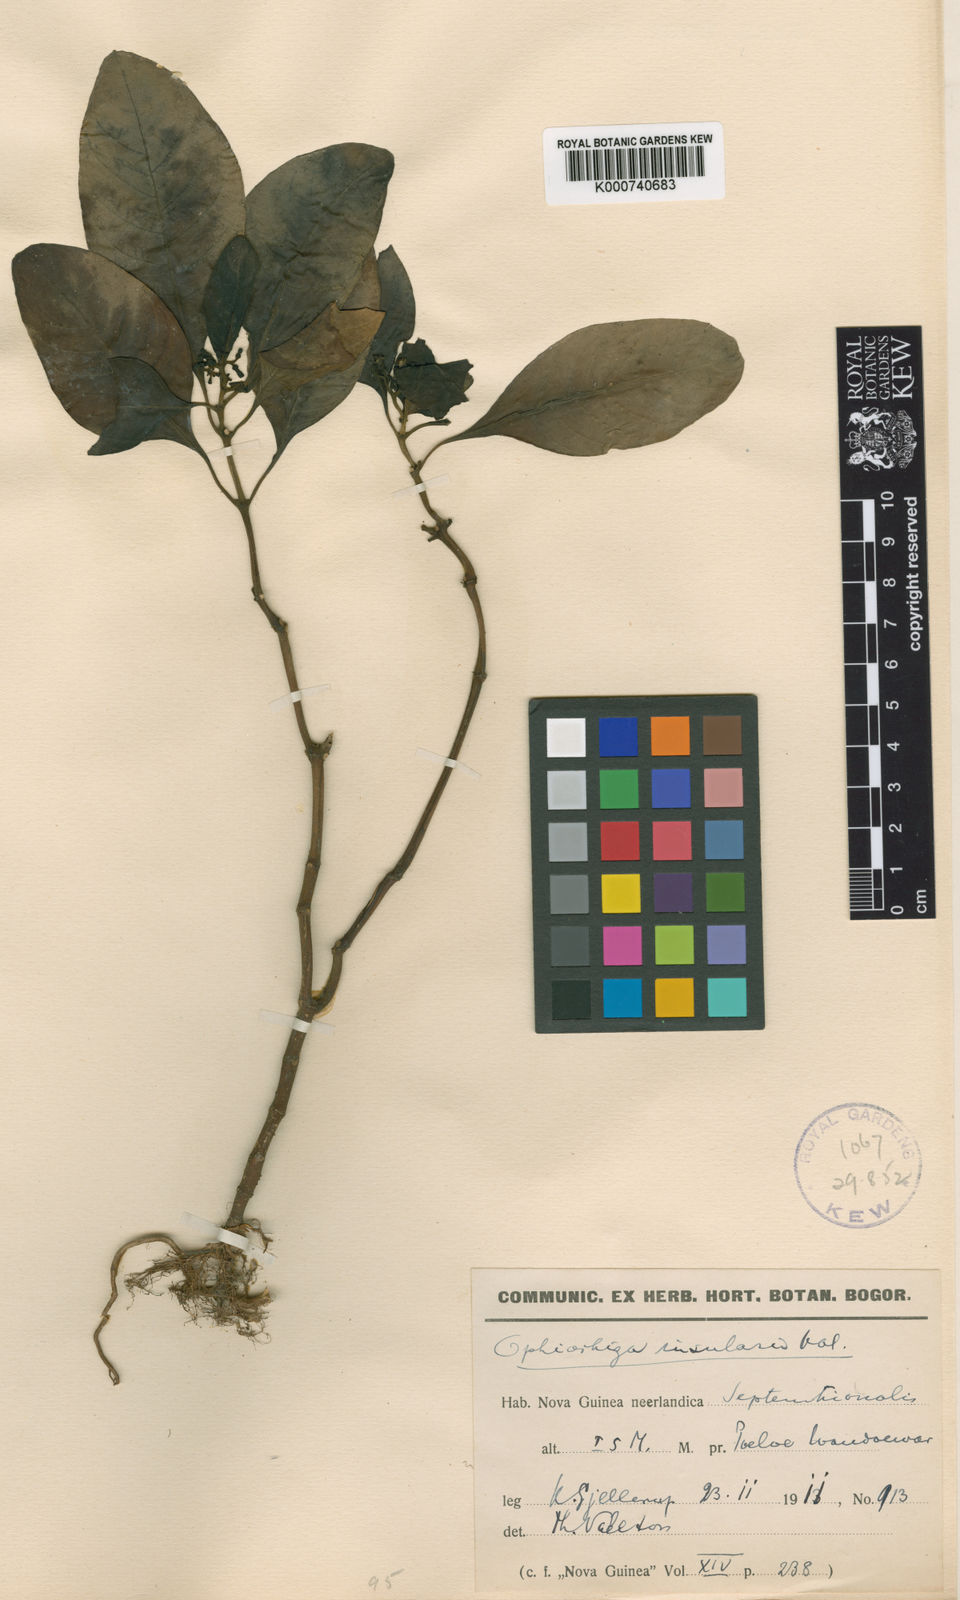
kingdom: Plantae
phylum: Tracheophyta
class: Magnoliopsida
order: Gentianales
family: Rubiaceae
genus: Ophiorrhiza
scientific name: Ophiorrhiza insularis
